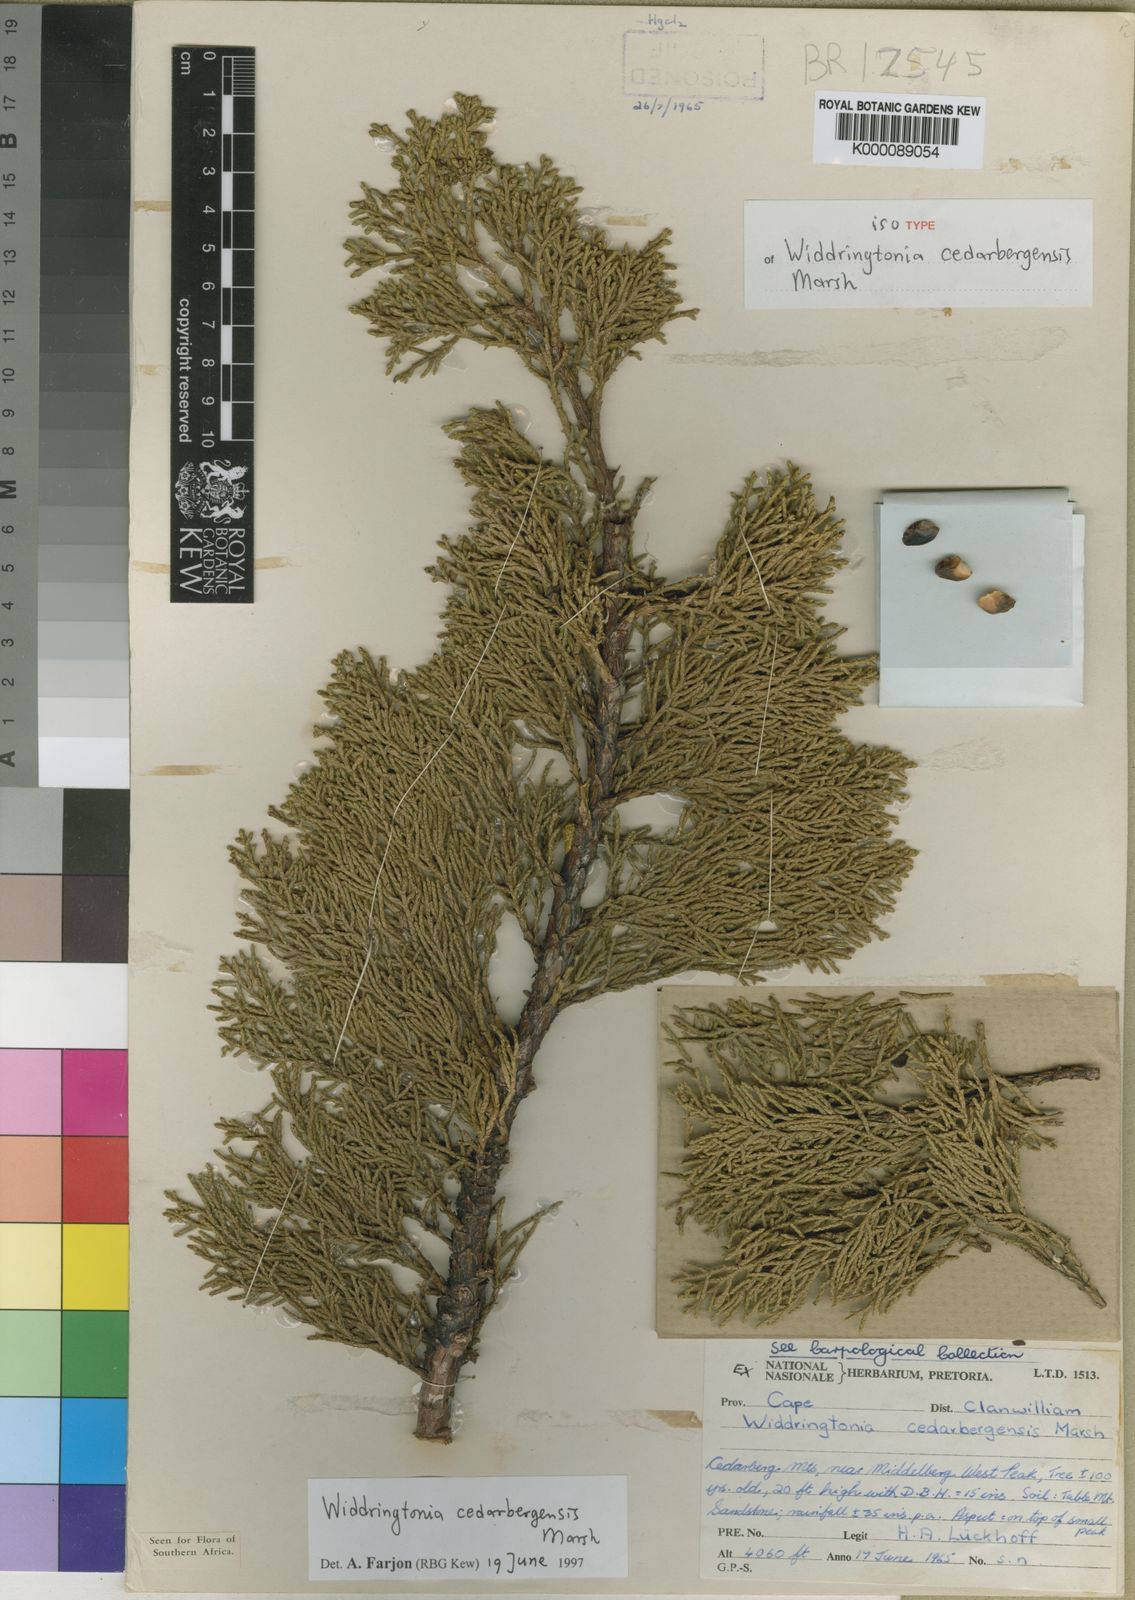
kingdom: Plantae
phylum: Tracheophyta
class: Pinopsida
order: Pinales
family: Cupressaceae
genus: Widdringtonia
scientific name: Widdringtonia cedarbergensis
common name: Cape cedar
